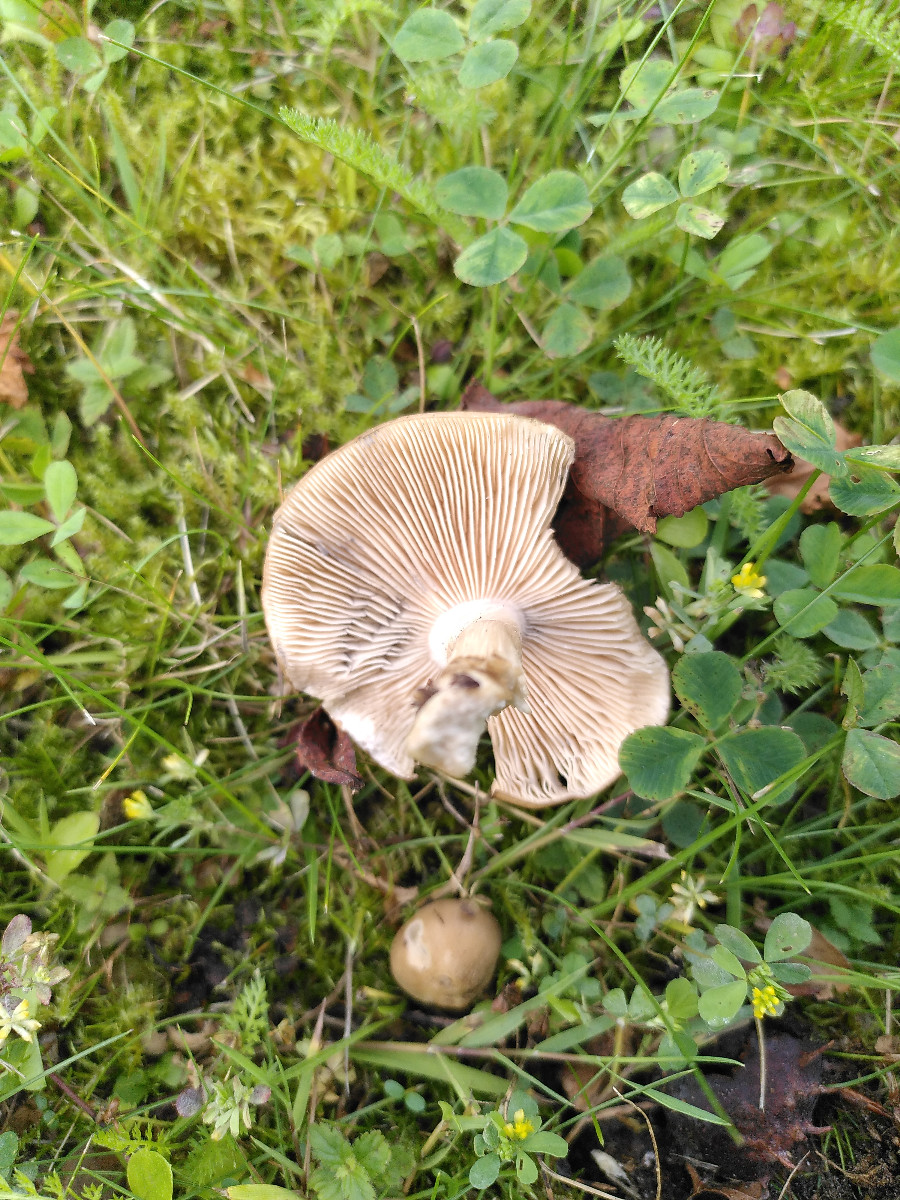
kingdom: Fungi
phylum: Basidiomycota
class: Agaricomycetes
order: Agaricales
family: Lyophyllaceae
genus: Lyophyllum
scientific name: Lyophyllum paelochroum
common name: blånende gråblad
